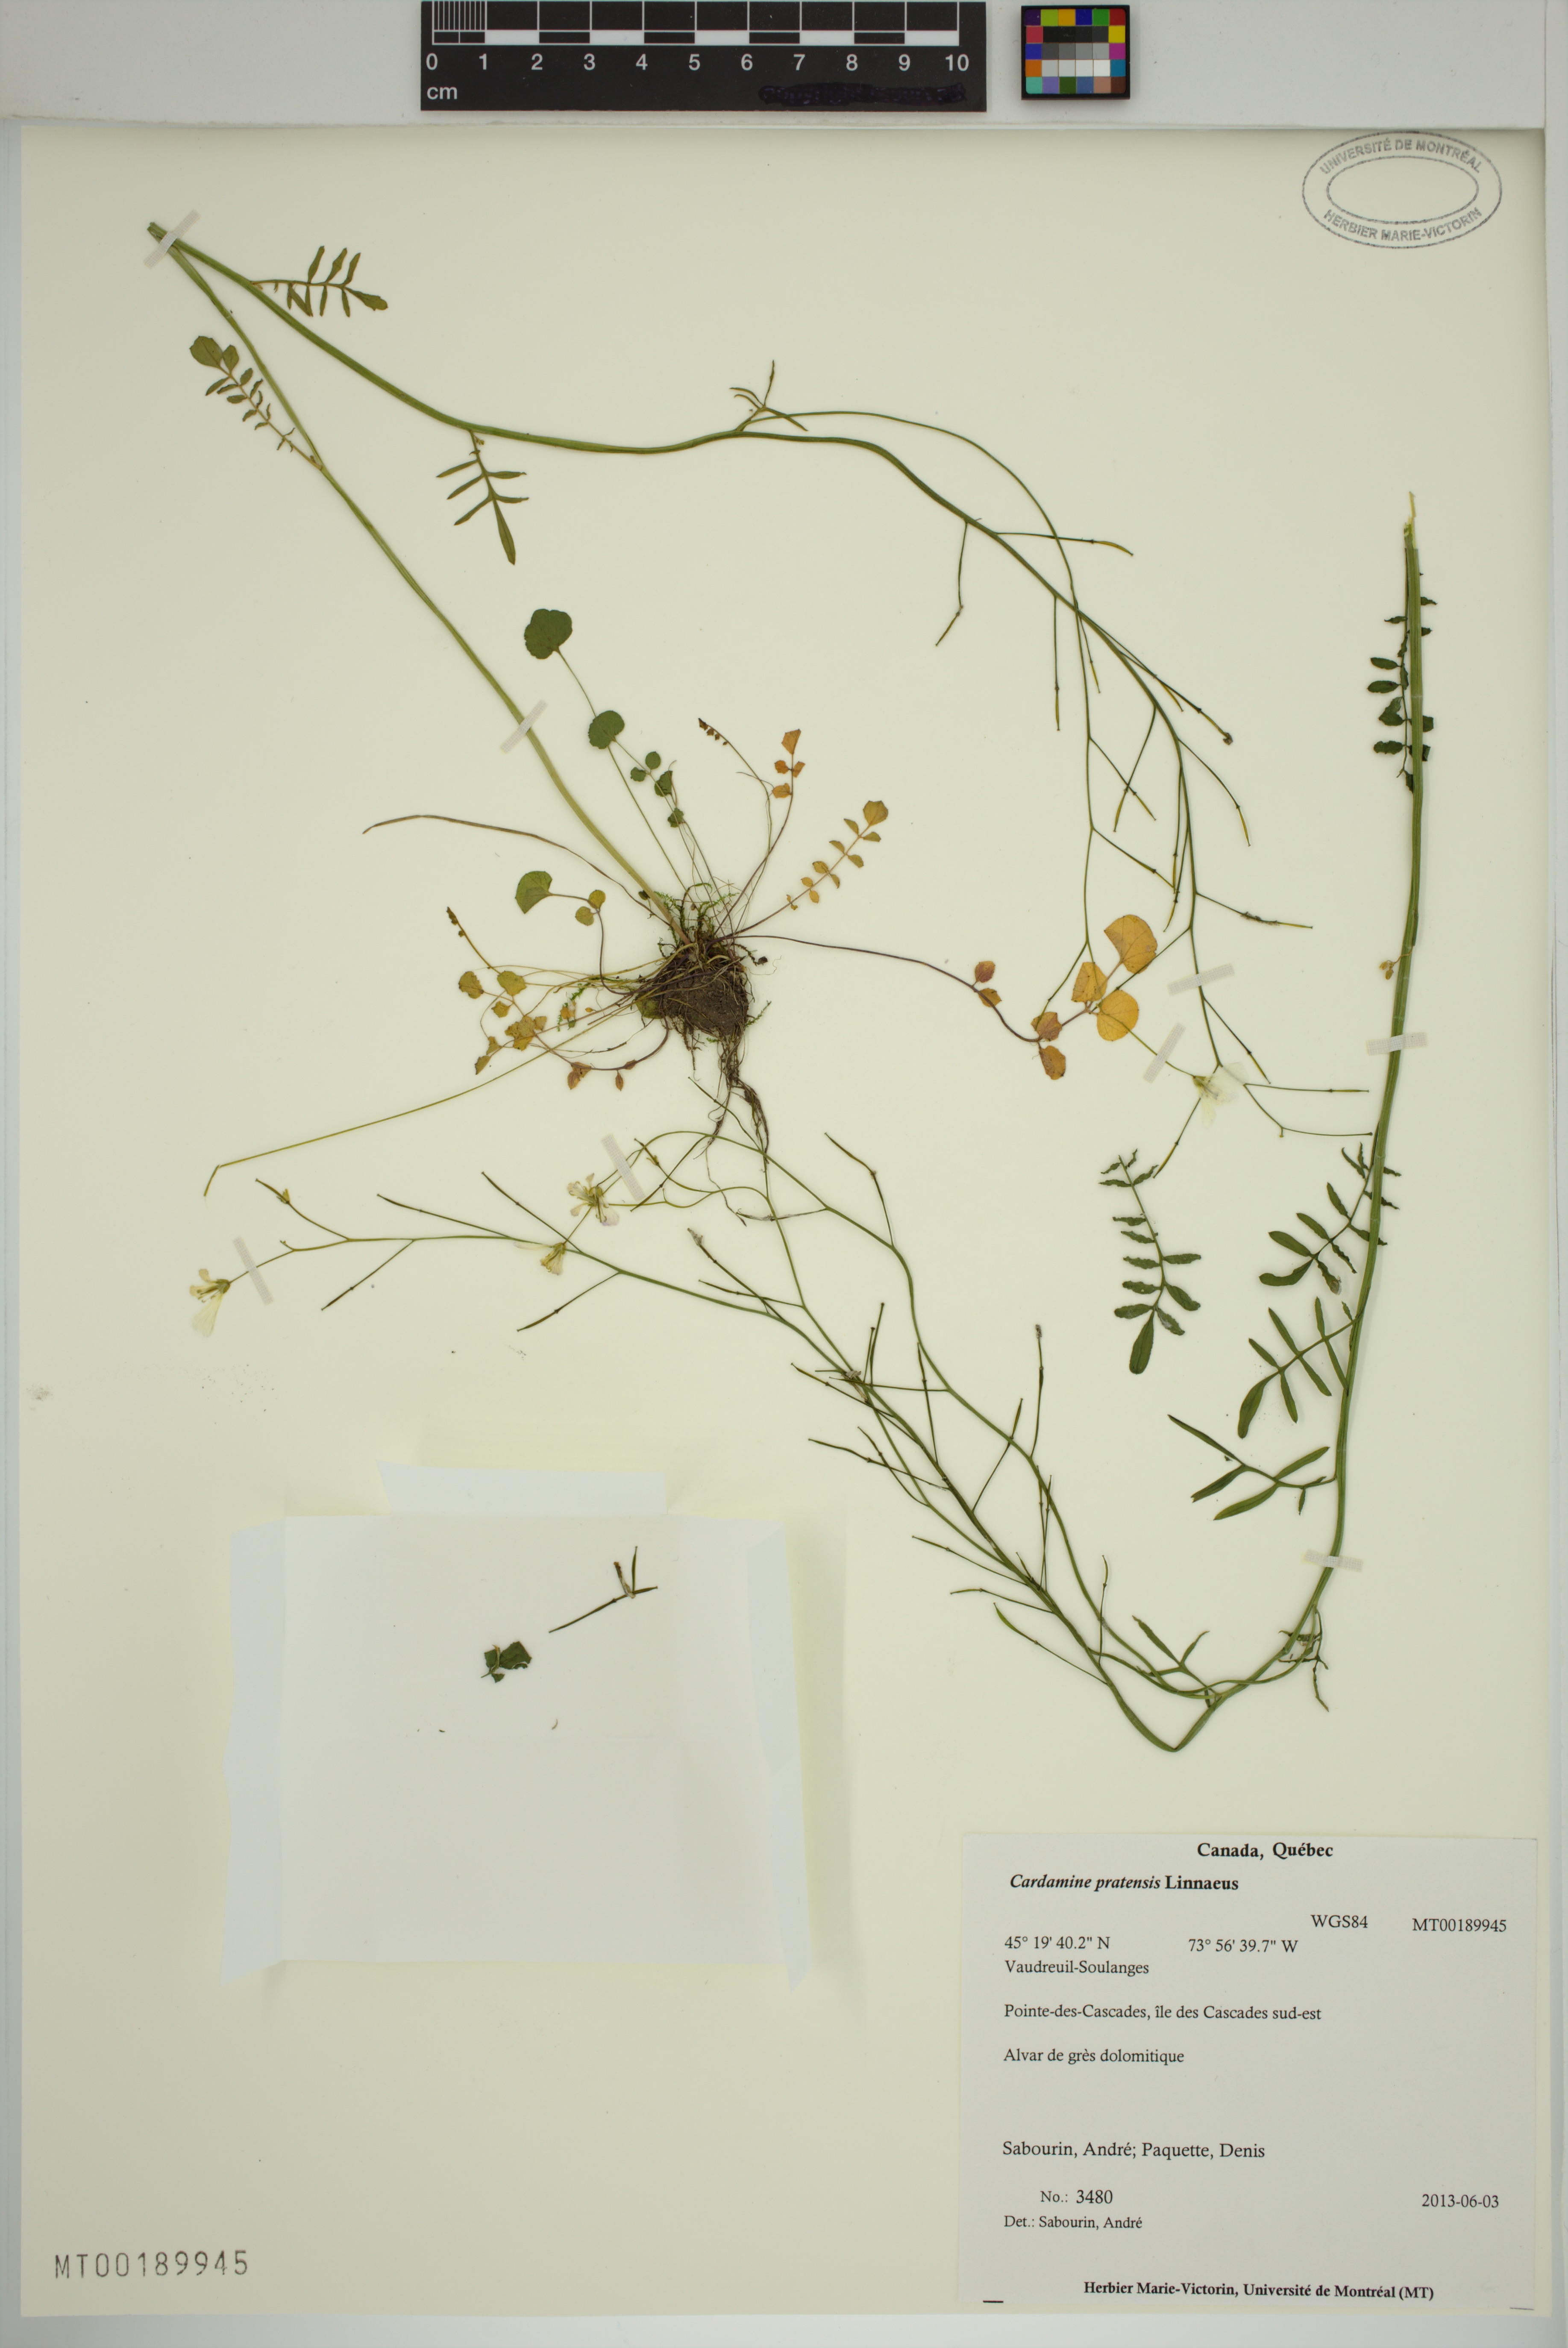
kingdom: Plantae
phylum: Tracheophyta
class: Magnoliopsida
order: Brassicales
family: Brassicaceae
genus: Cardamine
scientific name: Cardamine pratensis
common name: Cuckoo flower
